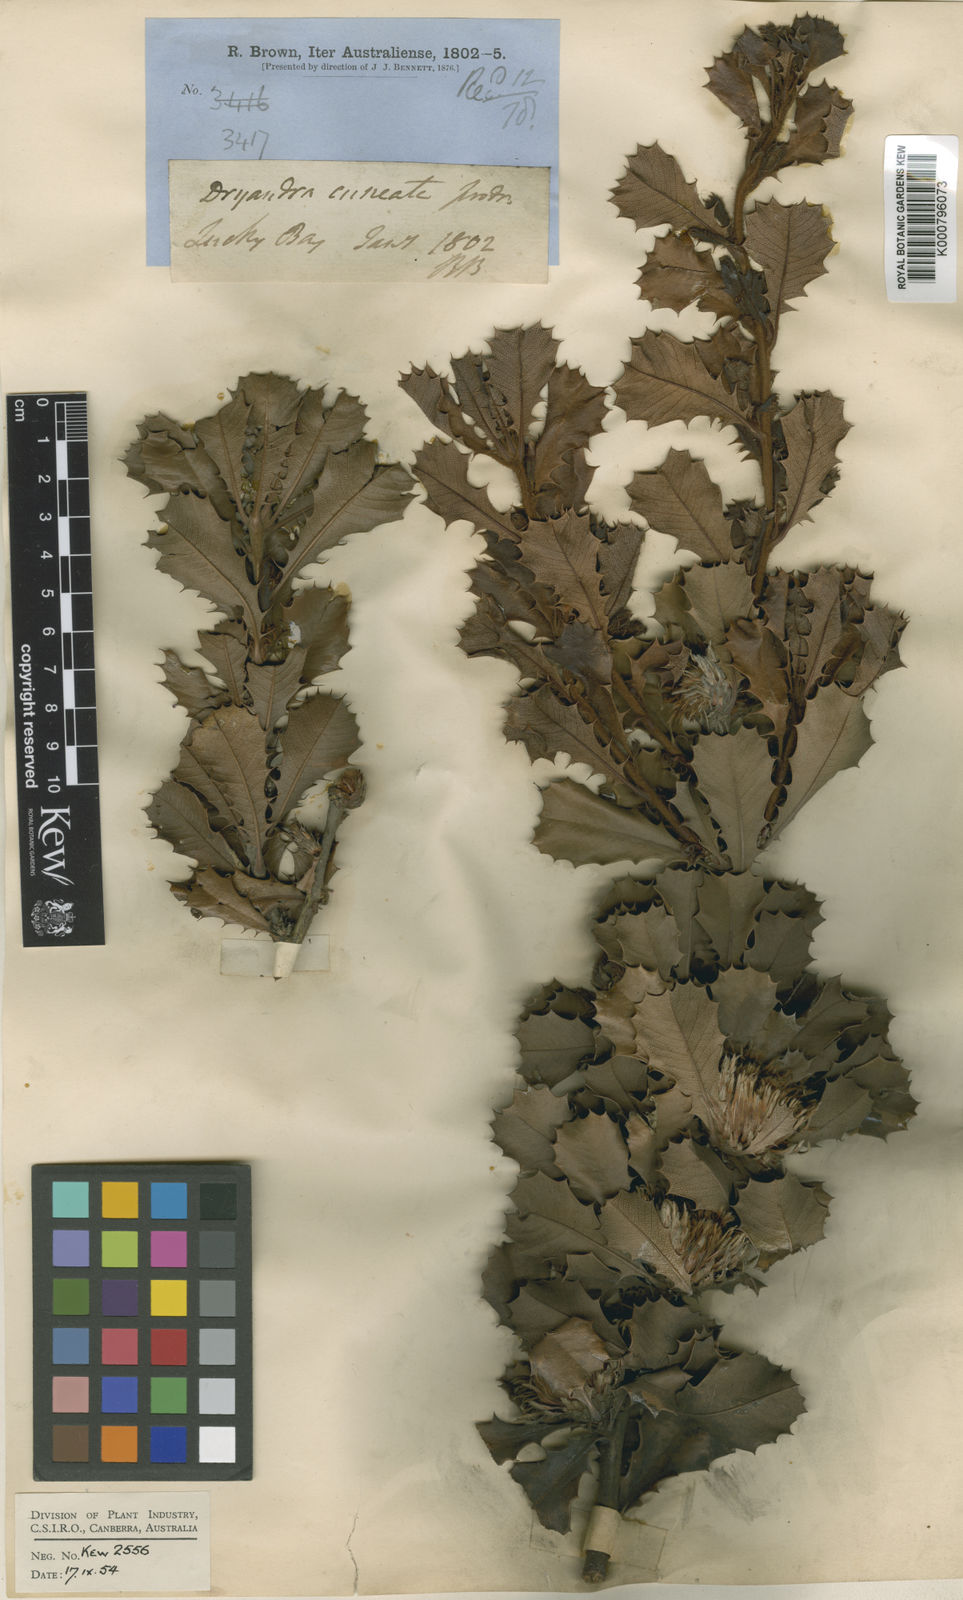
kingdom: Plantae
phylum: Tracheophyta
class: Magnoliopsida
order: Proteales
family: Proteaceae
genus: Banksia
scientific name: Banksia obovata
